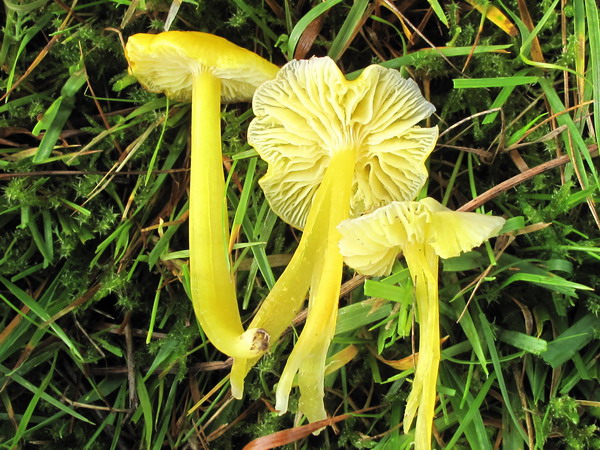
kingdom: Fungi
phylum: Basidiomycota
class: Agaricomycetes
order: Agaricales
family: Hygrophoraceae
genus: Hygrocybe
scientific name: Hygrocybe glutinipes
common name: slimstokket vokshat
